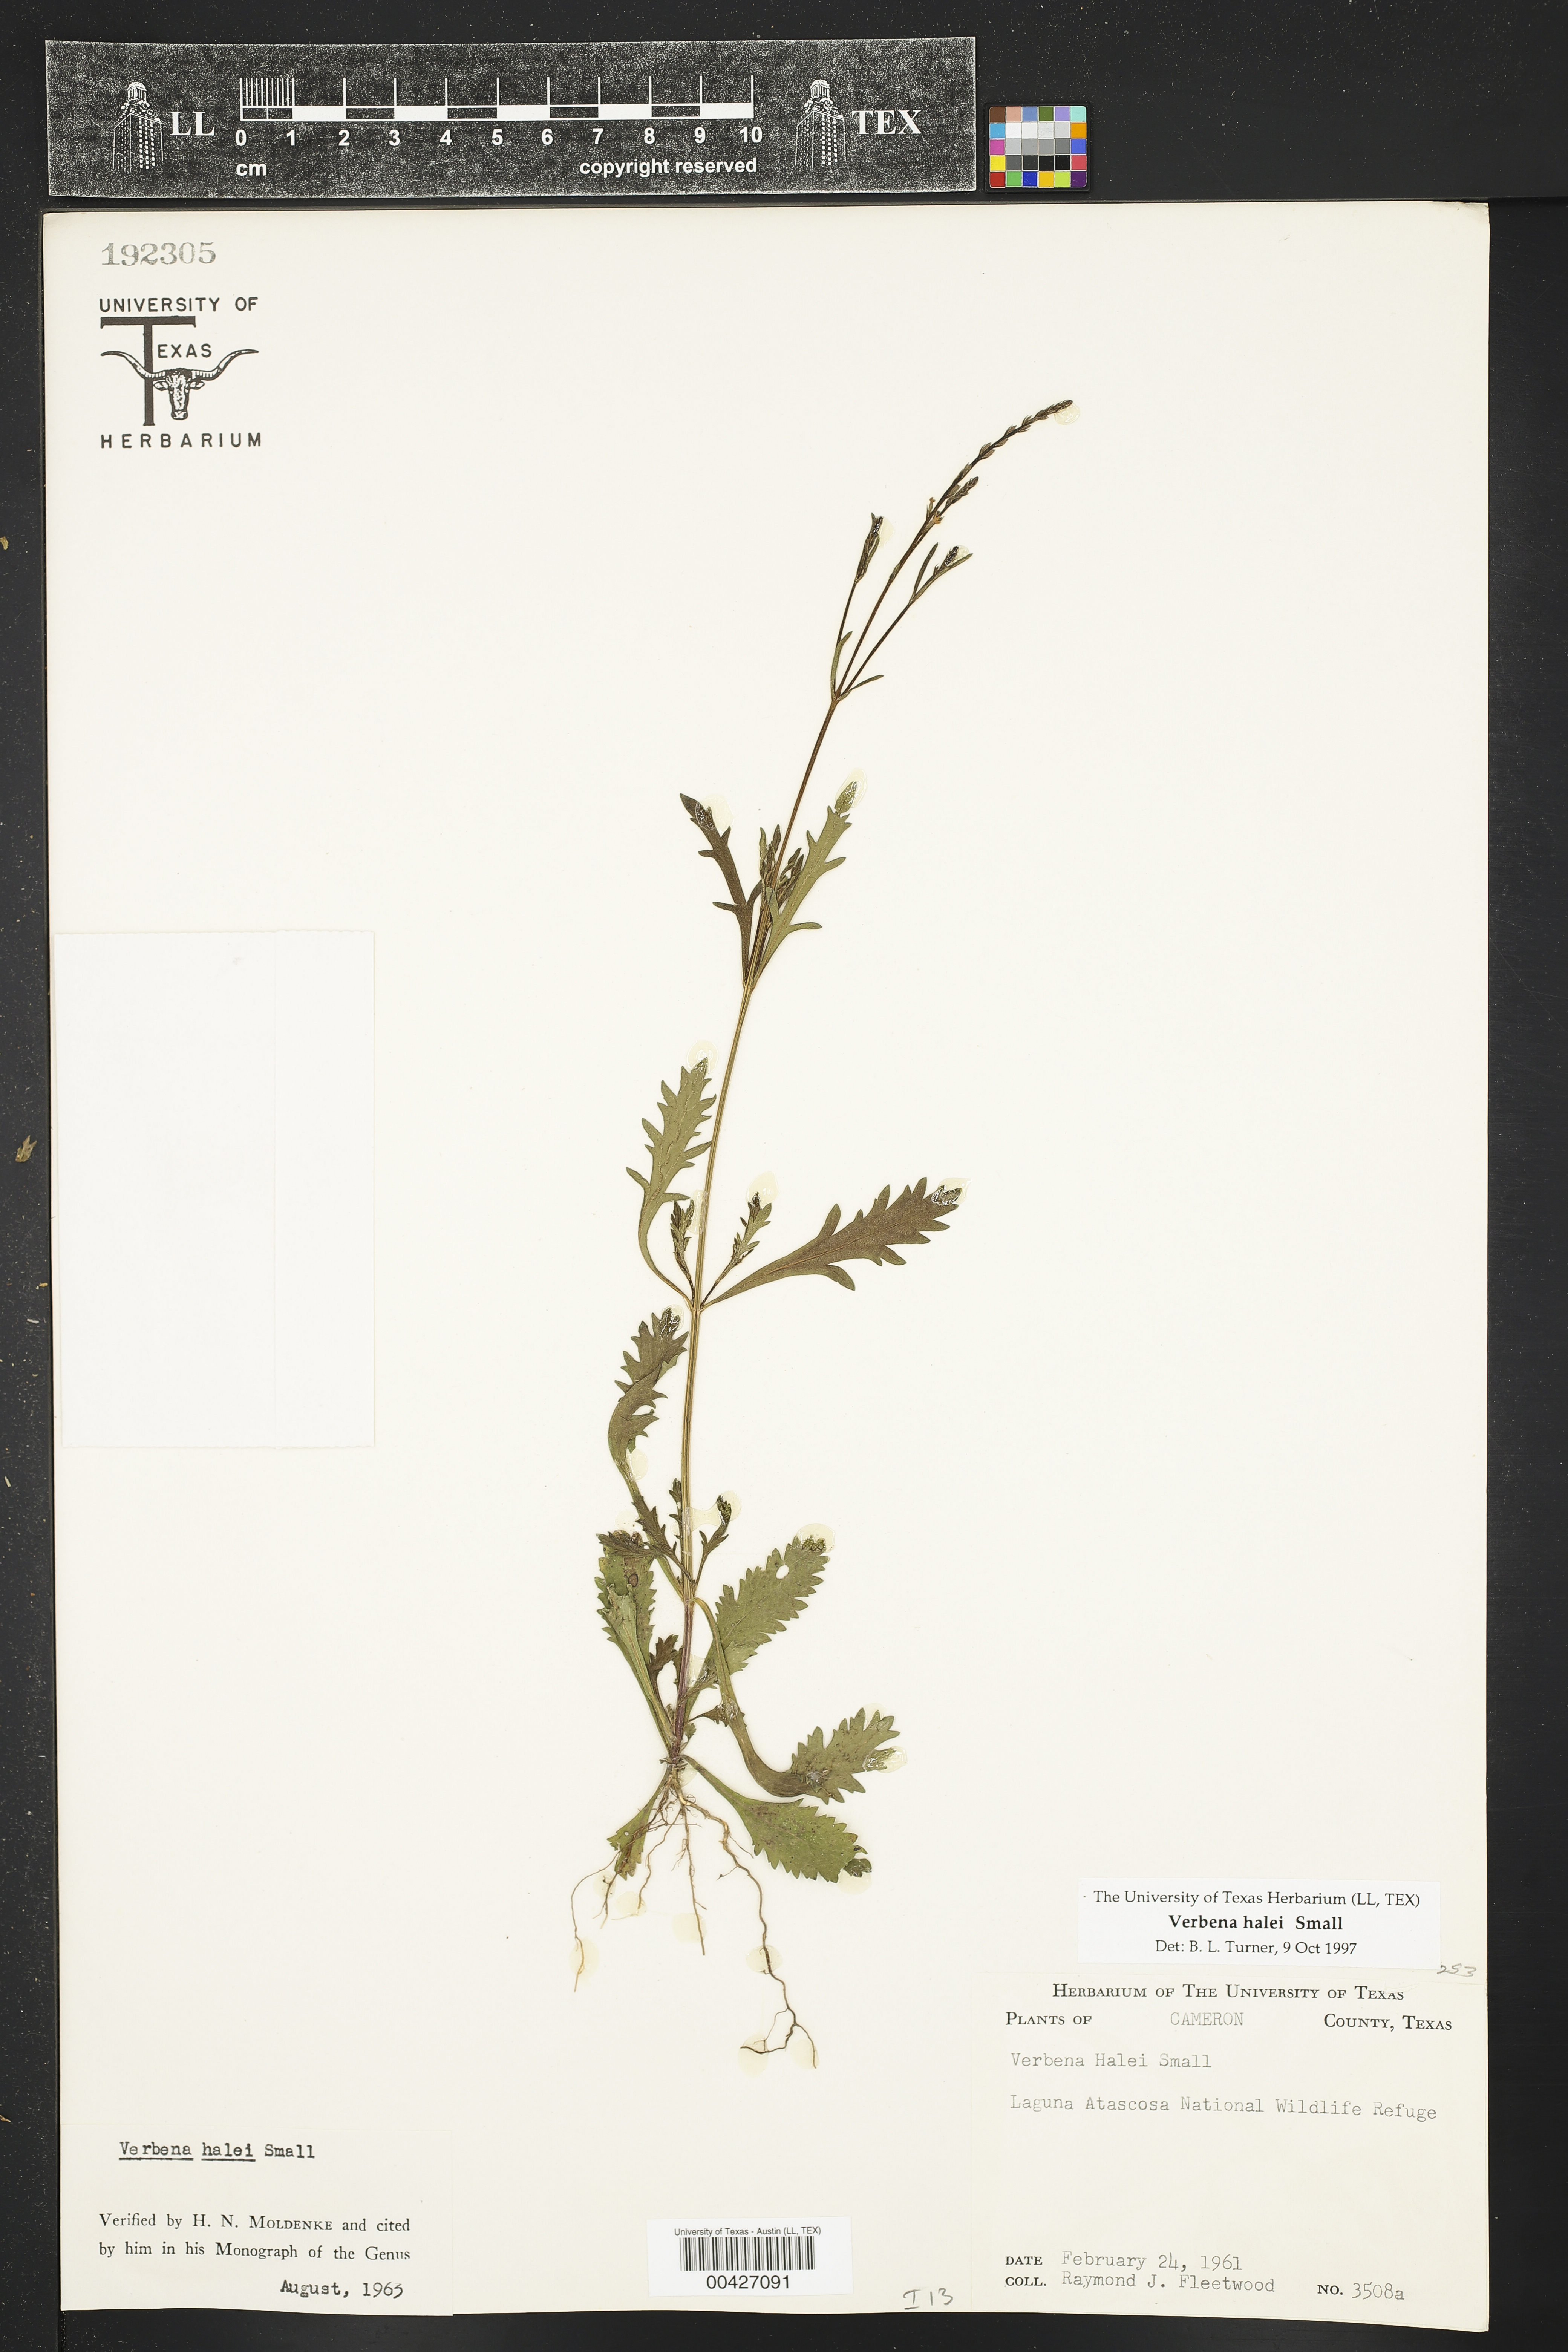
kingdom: Plantae
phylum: Tracheophyta
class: Magnoliopsida
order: Lamiales
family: Verbenaceae
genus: Verbena
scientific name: Verbena halei
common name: Texas vervain
